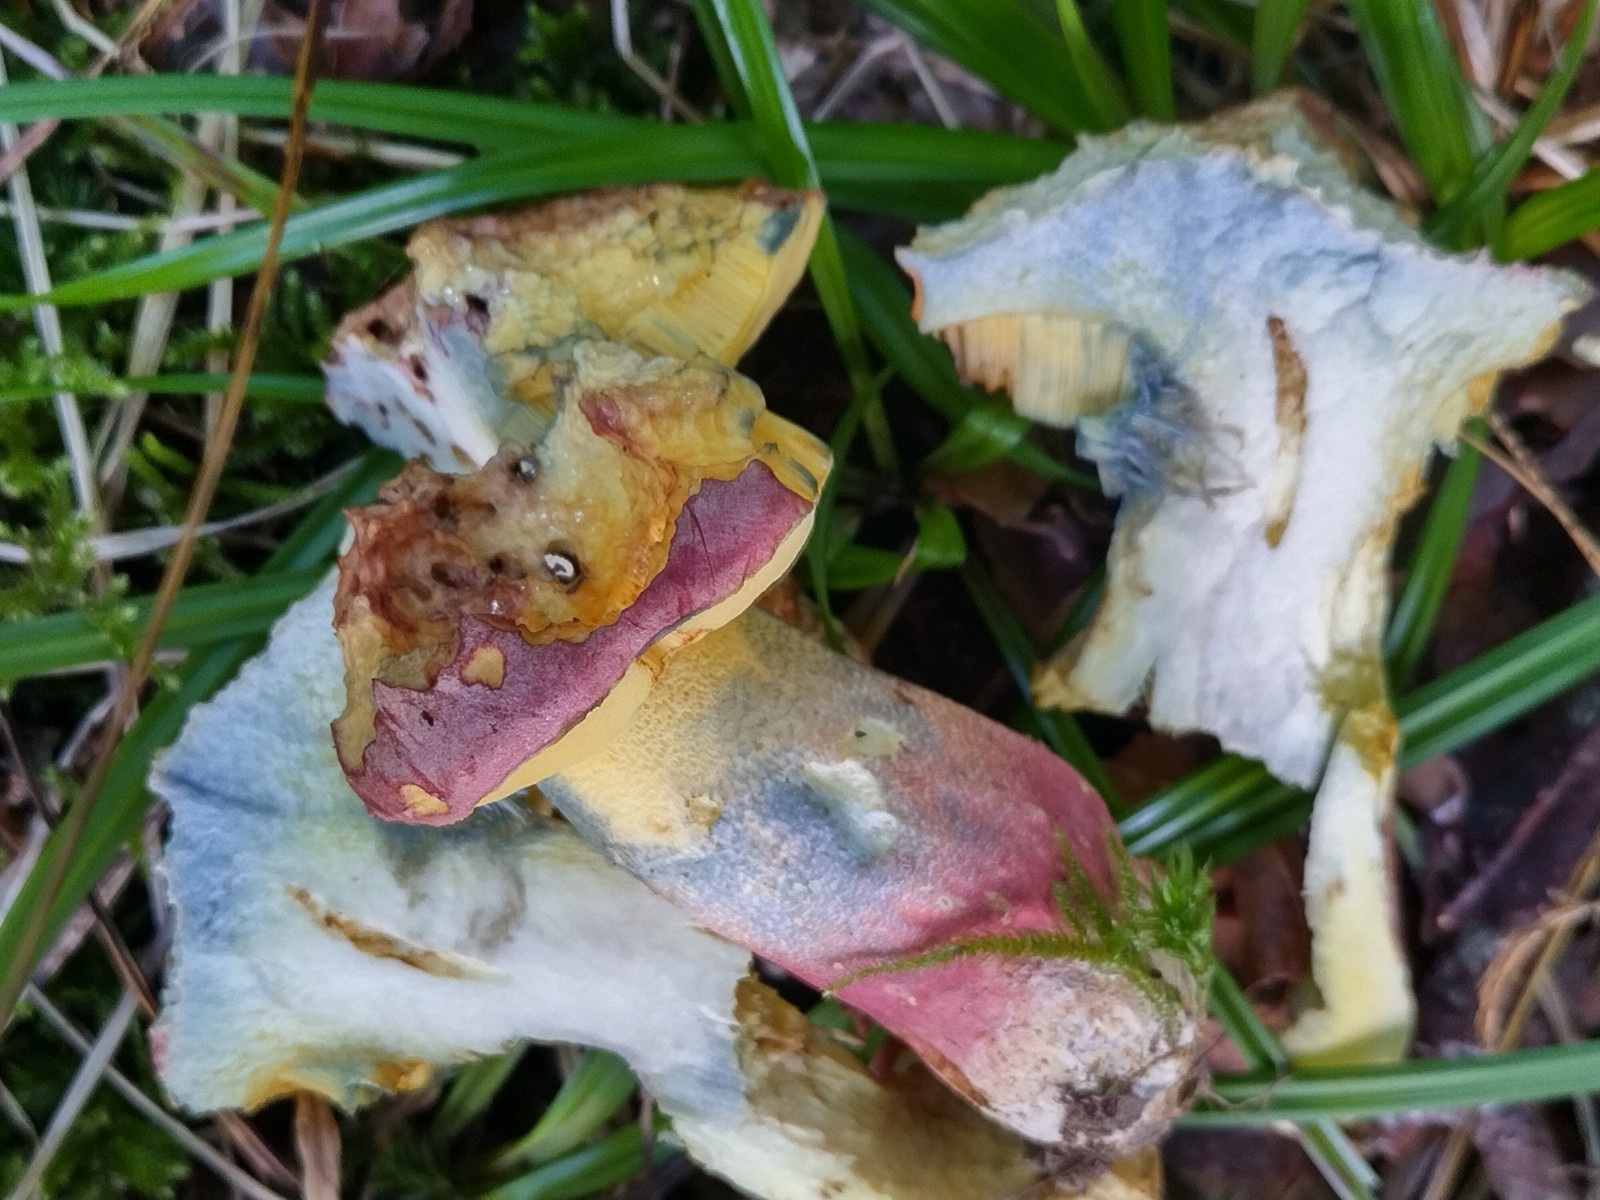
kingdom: Fungi
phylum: Basidiomycota
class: Agaricomycetes
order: Boletales
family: Boletaceae
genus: Butyriboletus
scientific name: Butyriboletus fuscoroseus
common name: brunrosa rørhat
